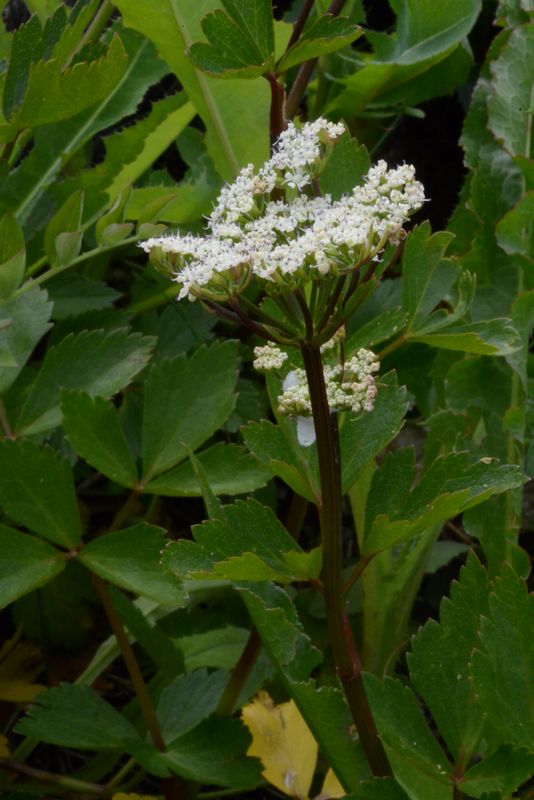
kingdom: Plantae
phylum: Tracheophyta
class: Magnoliopsida
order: Apiales
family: Apiaceae
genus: Ligusticum
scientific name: Ligusticum scothicum
